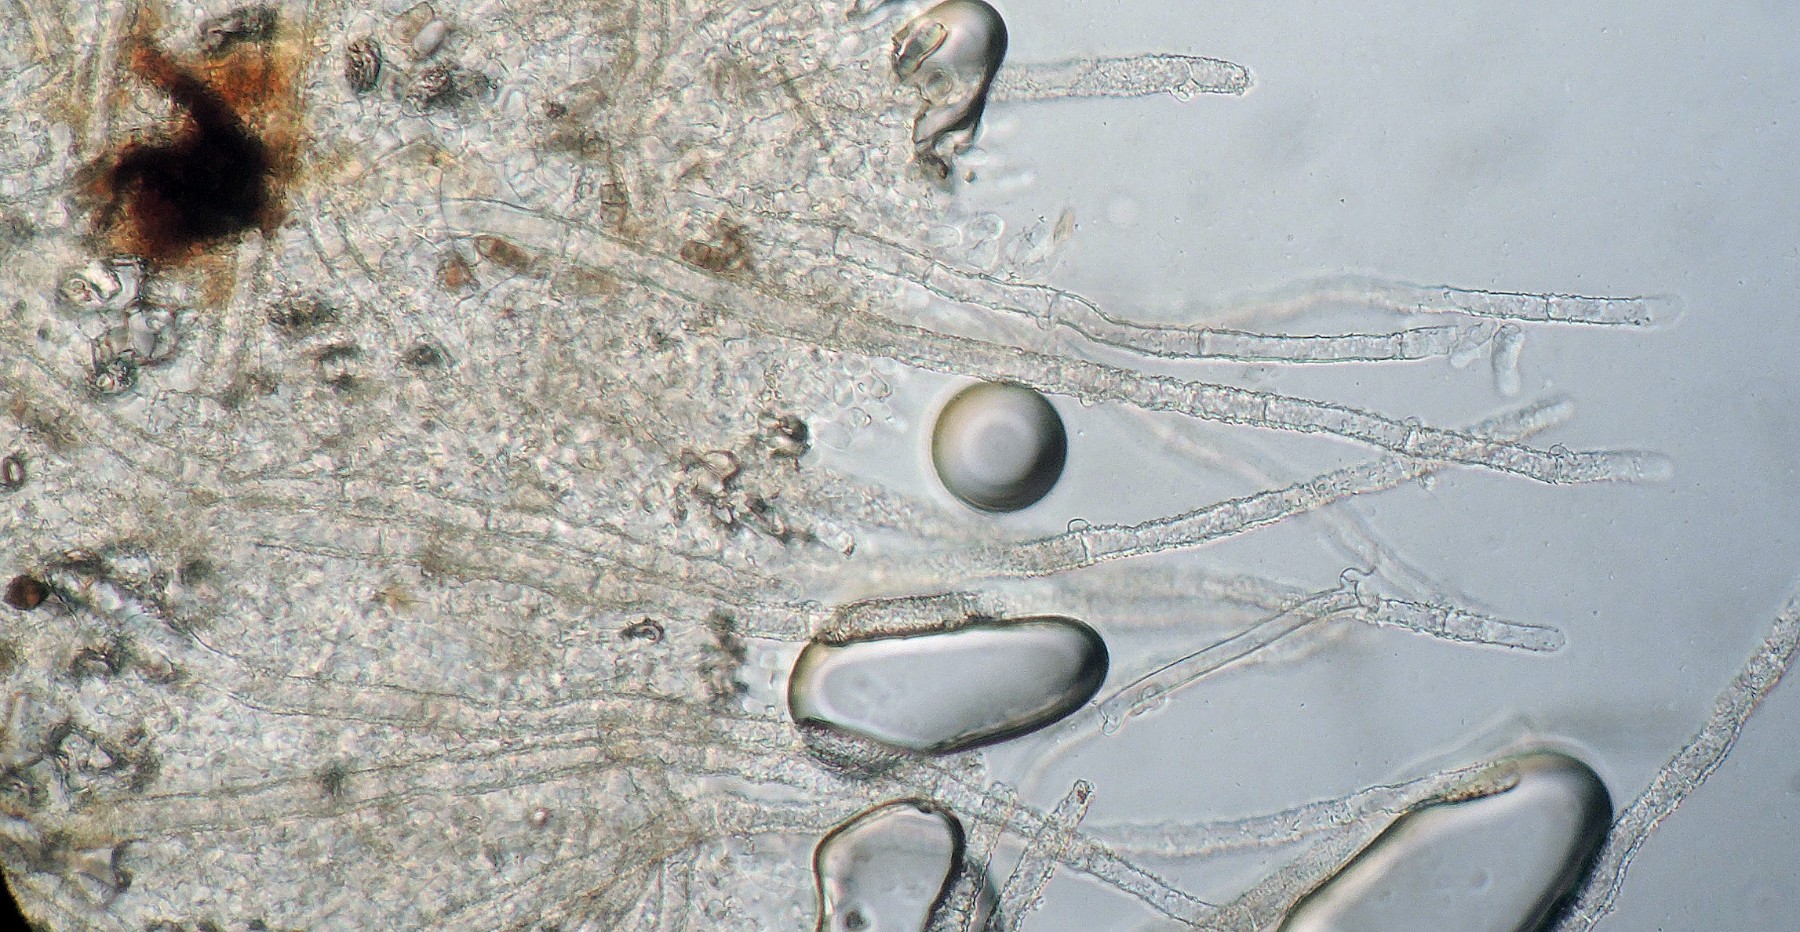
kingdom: Fungi
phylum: Basidiomycota
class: Agaricomycetes
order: Polyporales
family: Meruliaceae
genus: Gyrophanopsis
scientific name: Gyrophanopsis polonensis
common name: langhåret kalkskind
